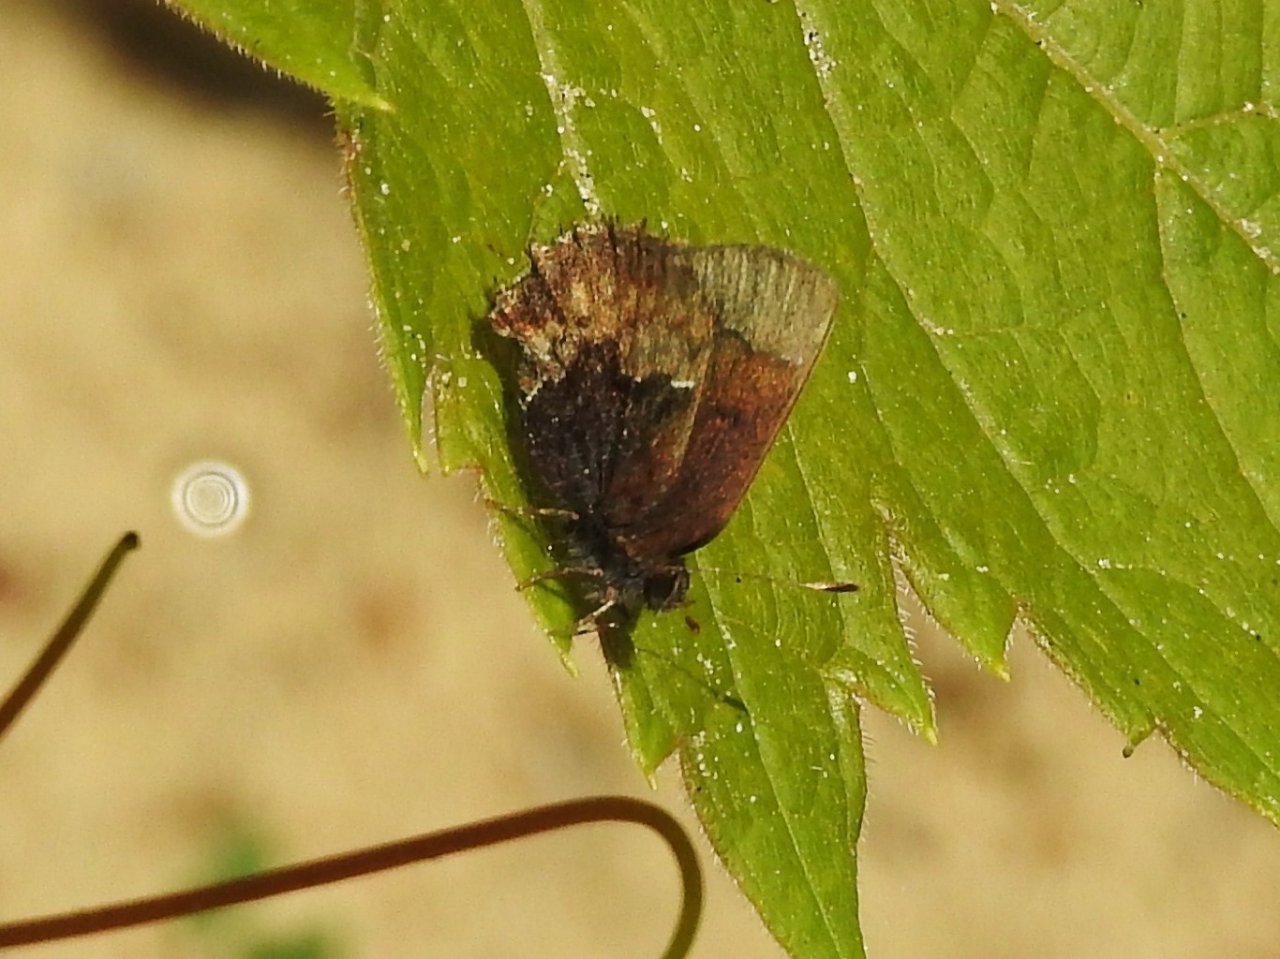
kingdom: Animalia
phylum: Arthropoda
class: Insecta
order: Lepidoptera
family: Lycaenidae
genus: Incisalia
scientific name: Incisalia henrici
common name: Henry's Elfin
